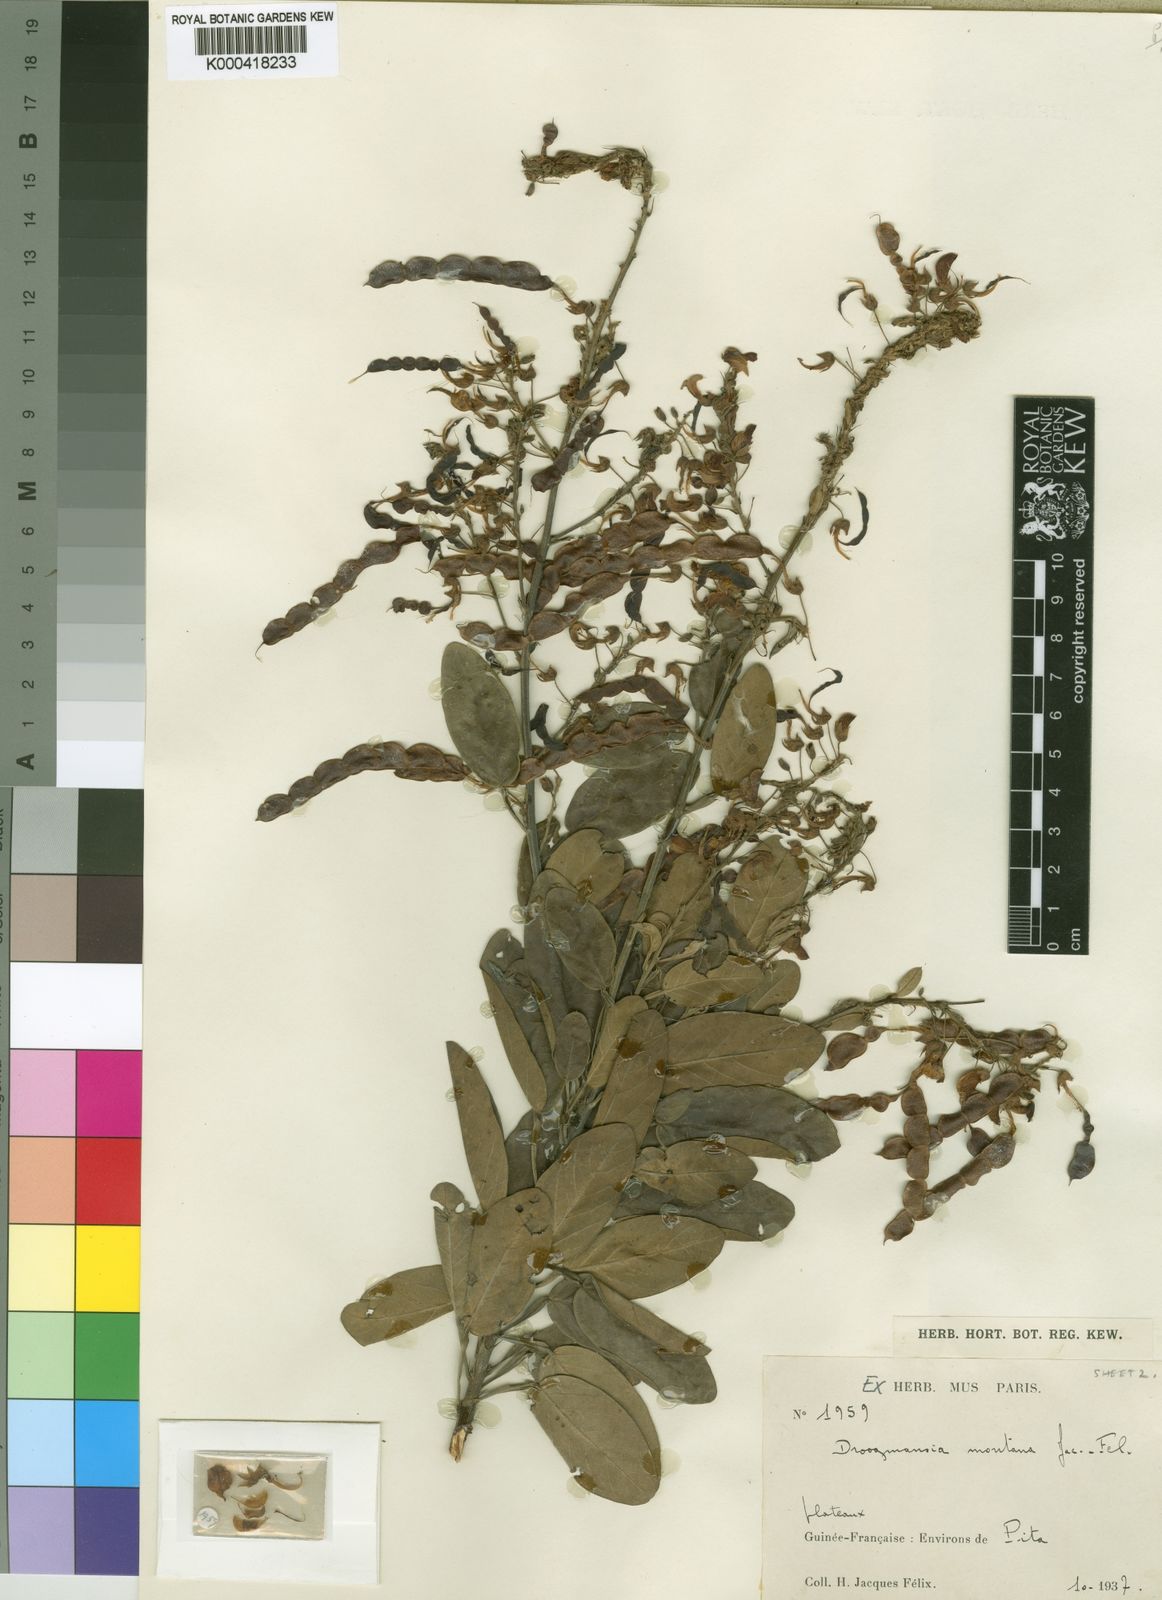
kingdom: Plantae
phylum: Tracheophyta
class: Magnoliopsida
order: Fabales
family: Fabaceae
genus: Droogmansia
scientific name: Droogmansia
